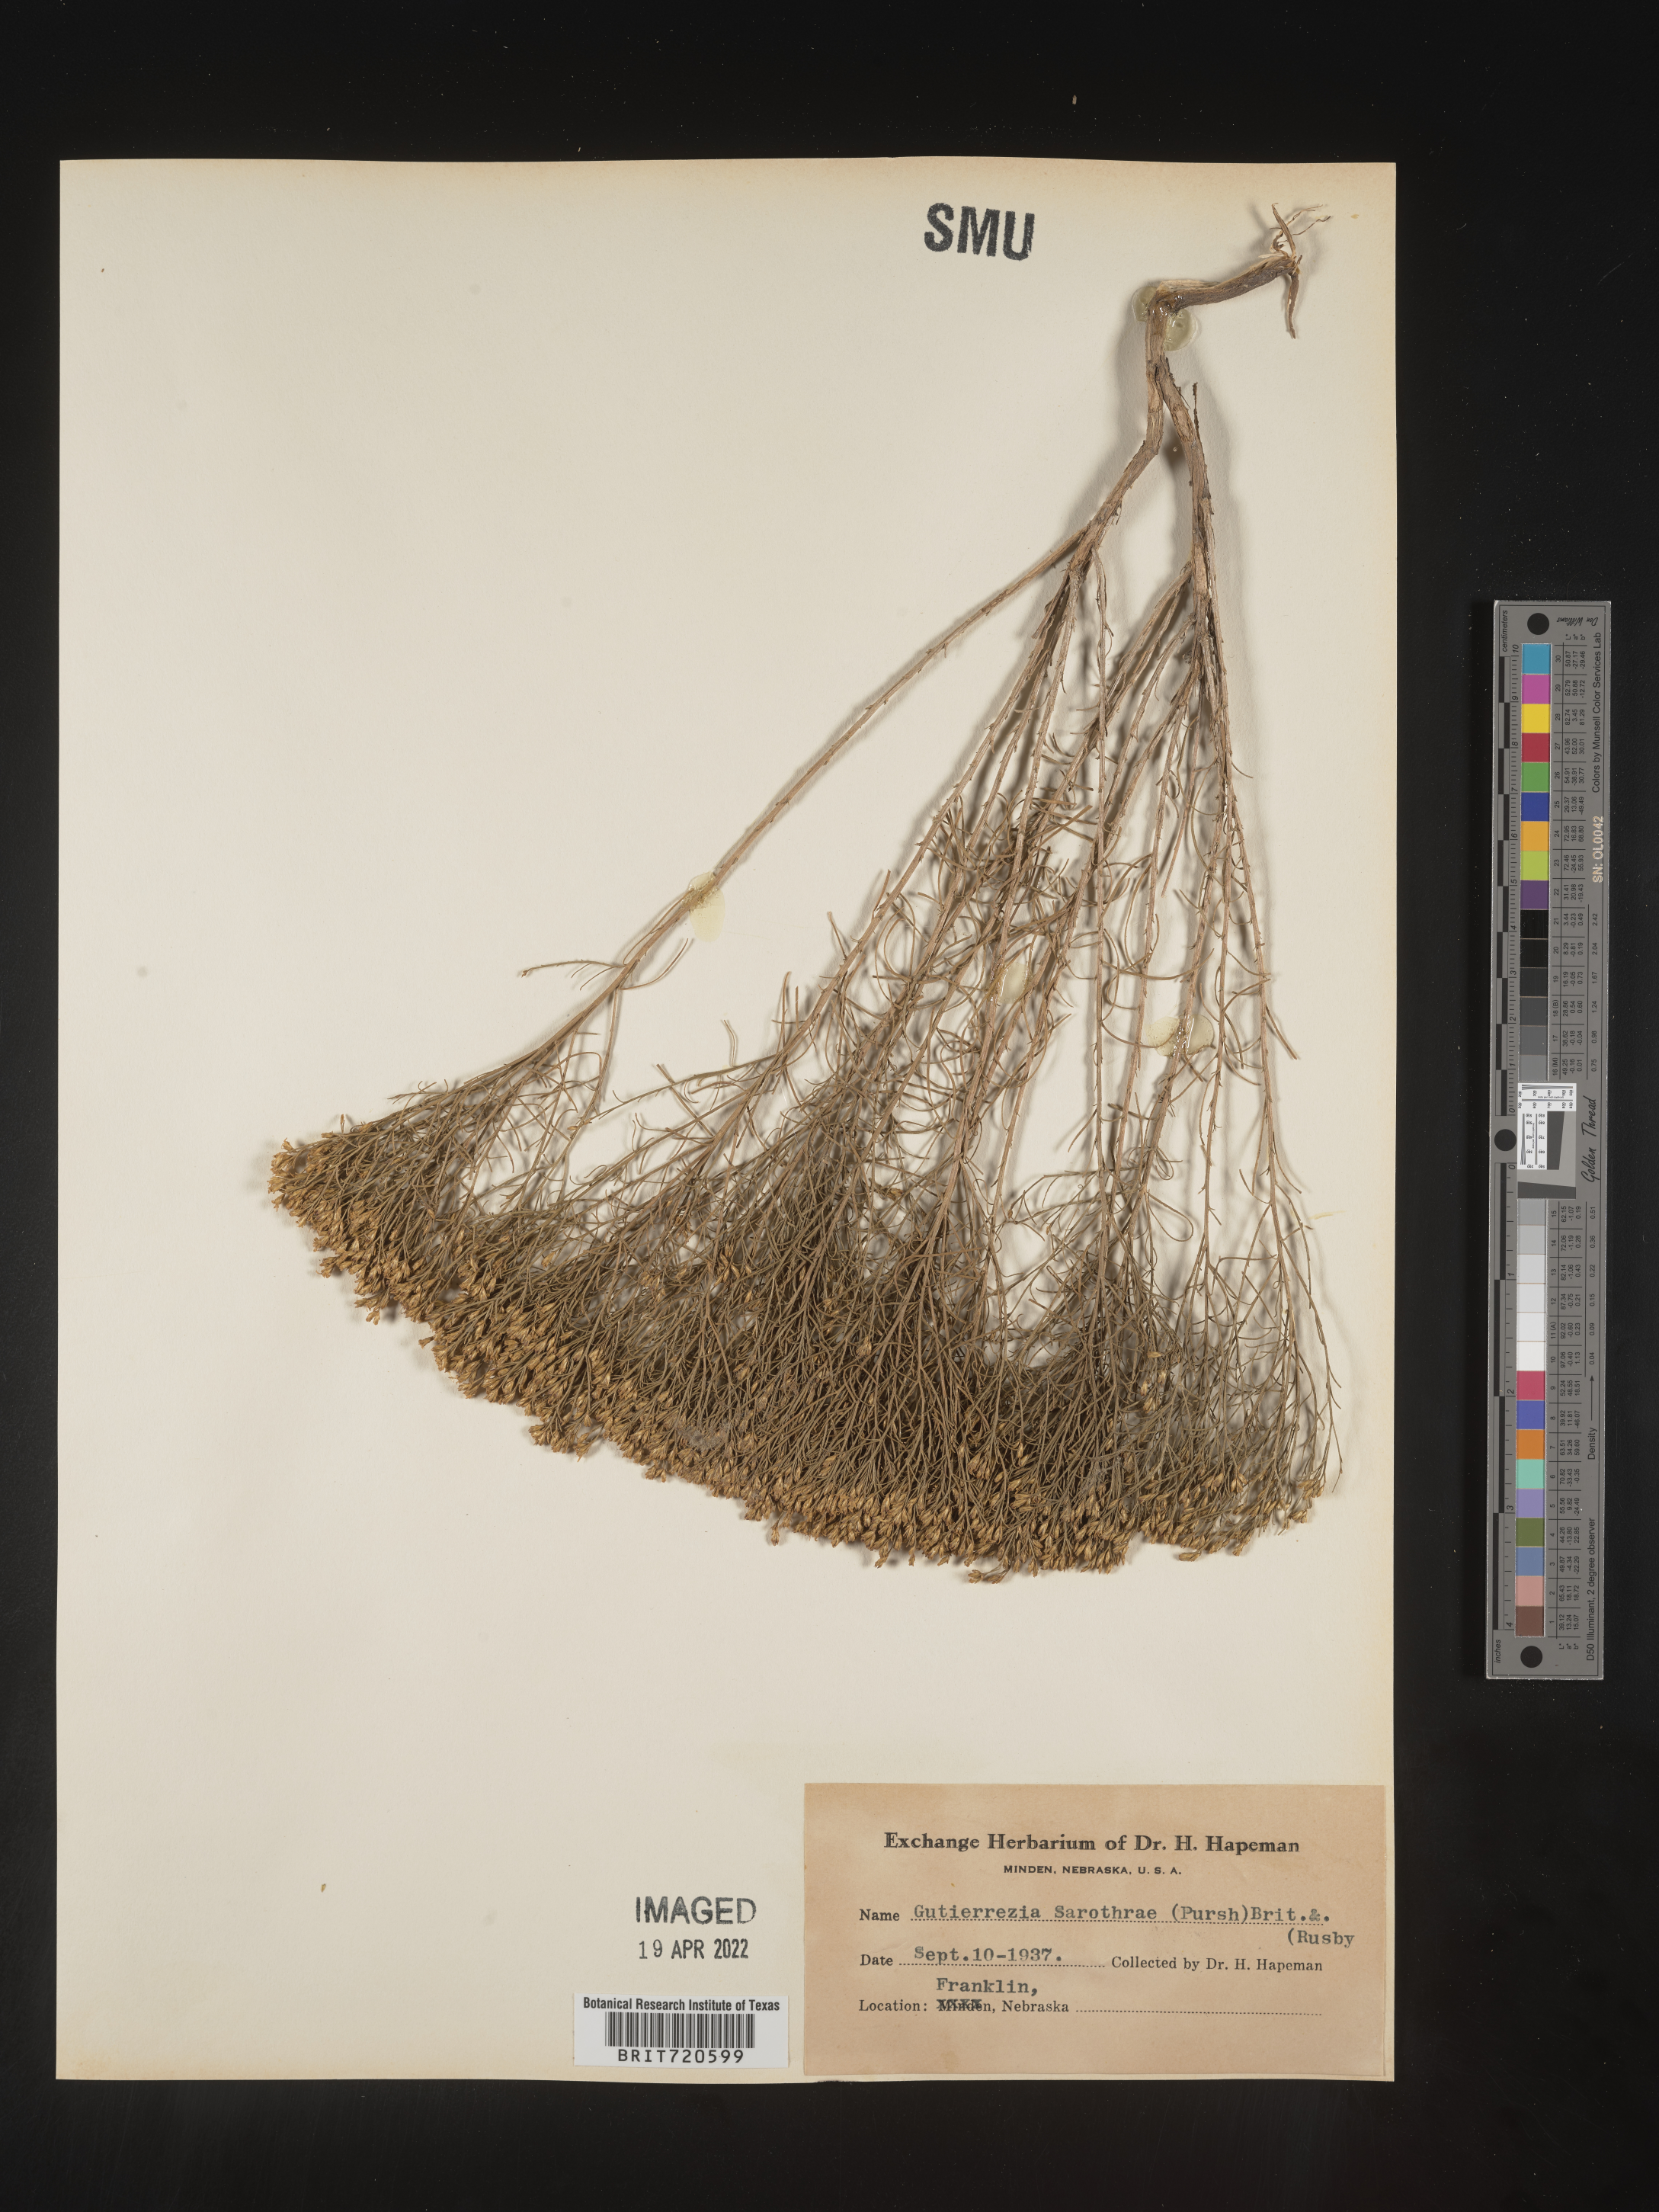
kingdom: Plantae
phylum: Tracheophyta
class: Magnoliopsida
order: Asterales
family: Asteraceae
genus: Gutierrezia
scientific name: Gutierrezia sarothrae
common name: Broom snakeweed
